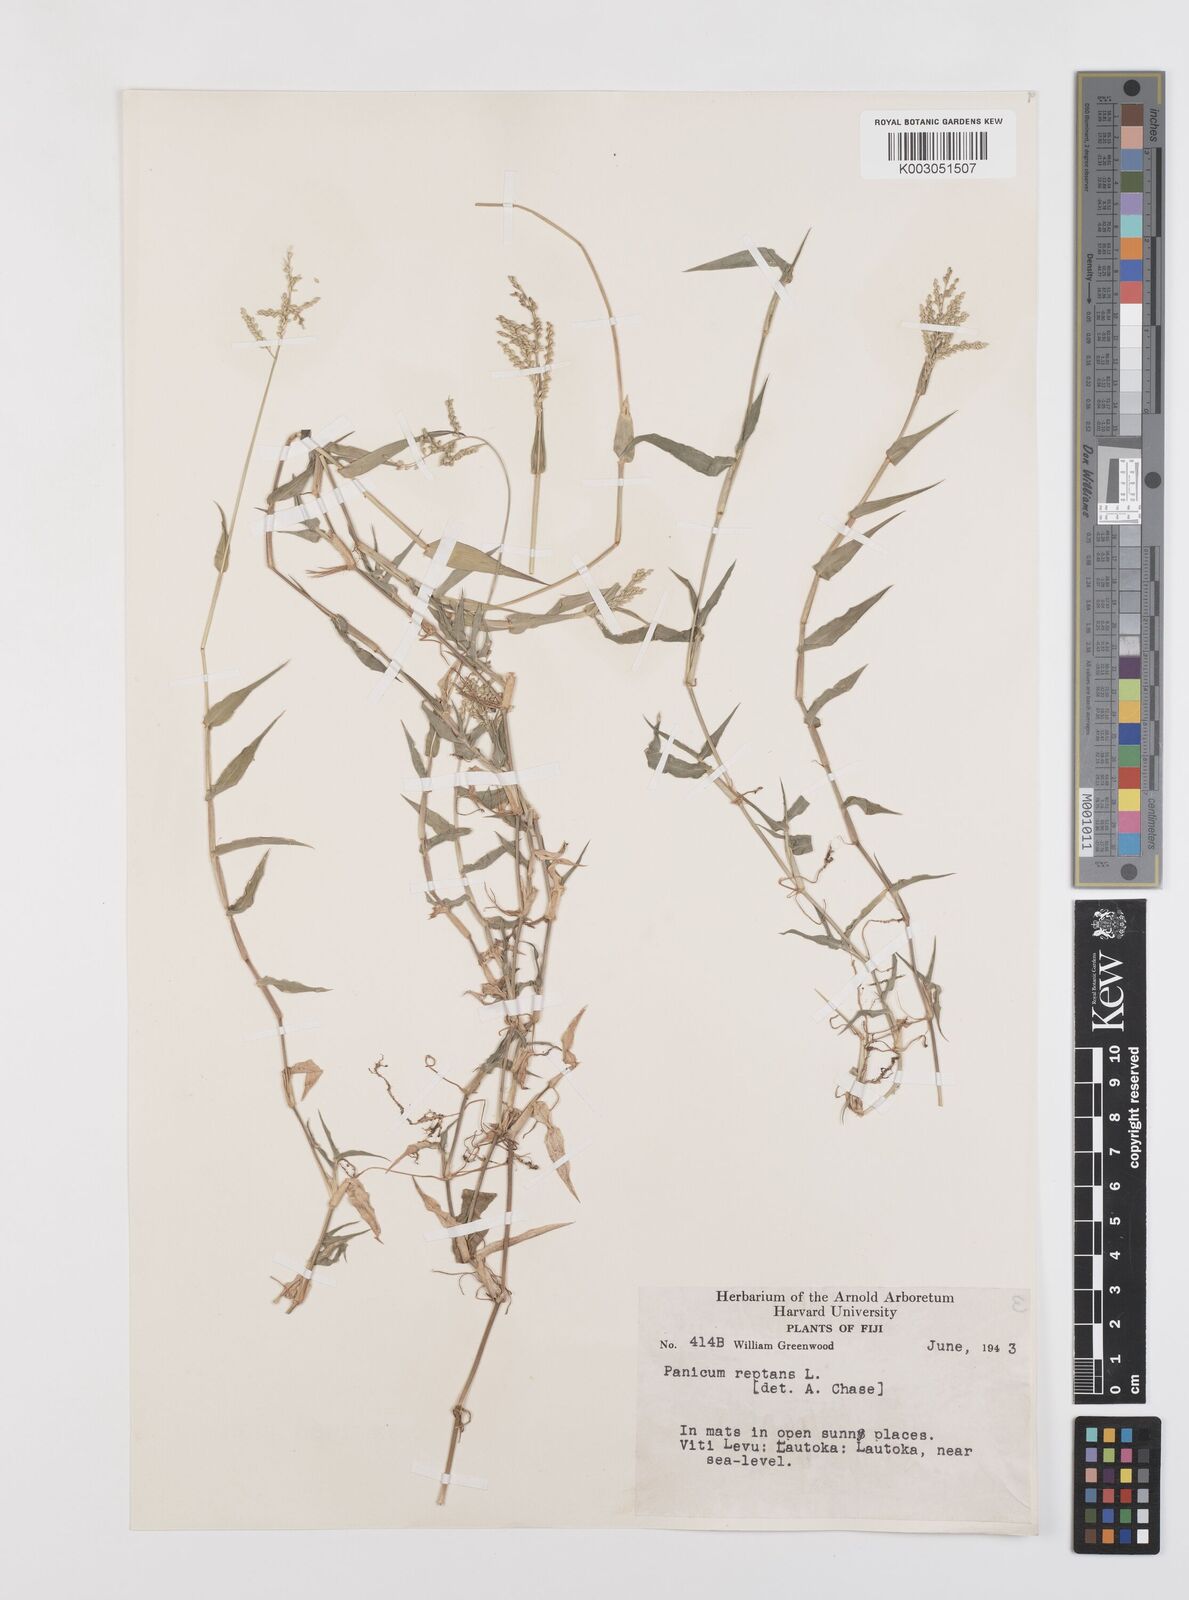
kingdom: Plantae
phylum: Tracheophyta
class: Liliopsida
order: Poales
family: Poaceae
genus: Urochloa
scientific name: Urochloa reptans
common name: Sprawling signalgrass
